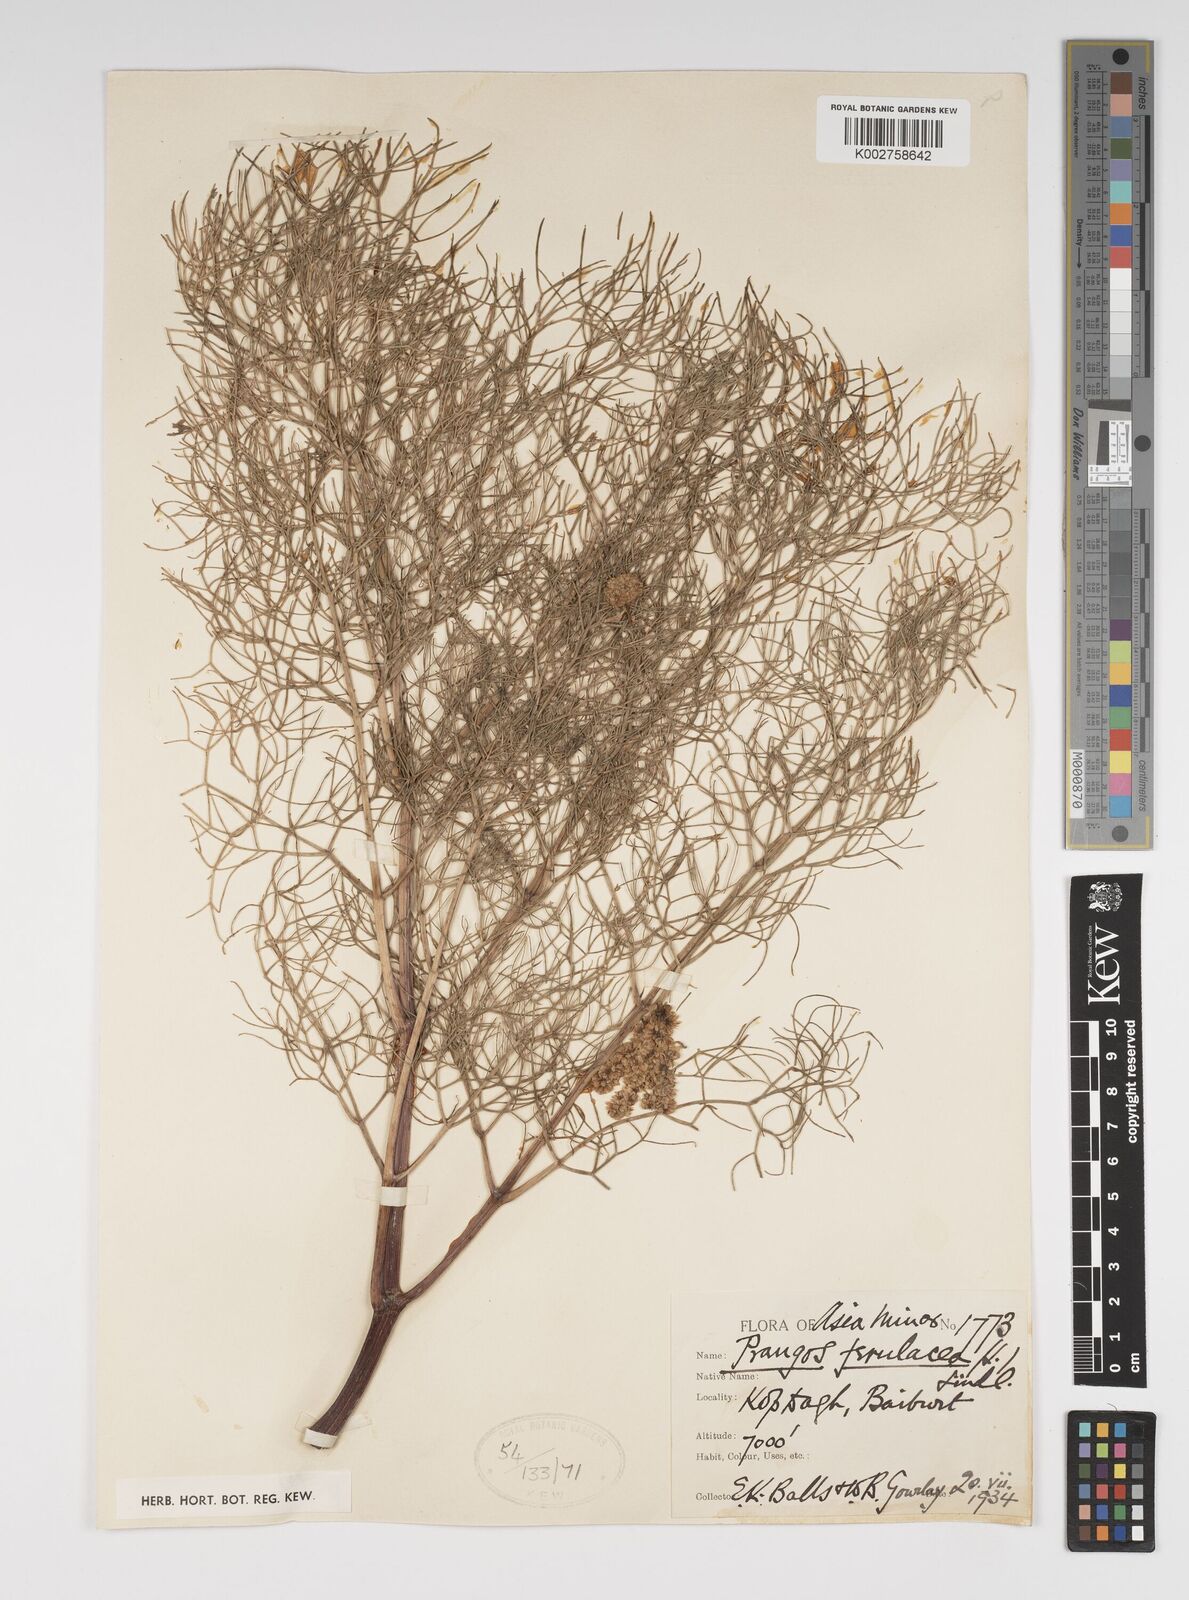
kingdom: Plantae
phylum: Tracheophyta
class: Magnoliopsida
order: Apiales
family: Apiaceae
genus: Prangos
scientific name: Prangos ferulacea
